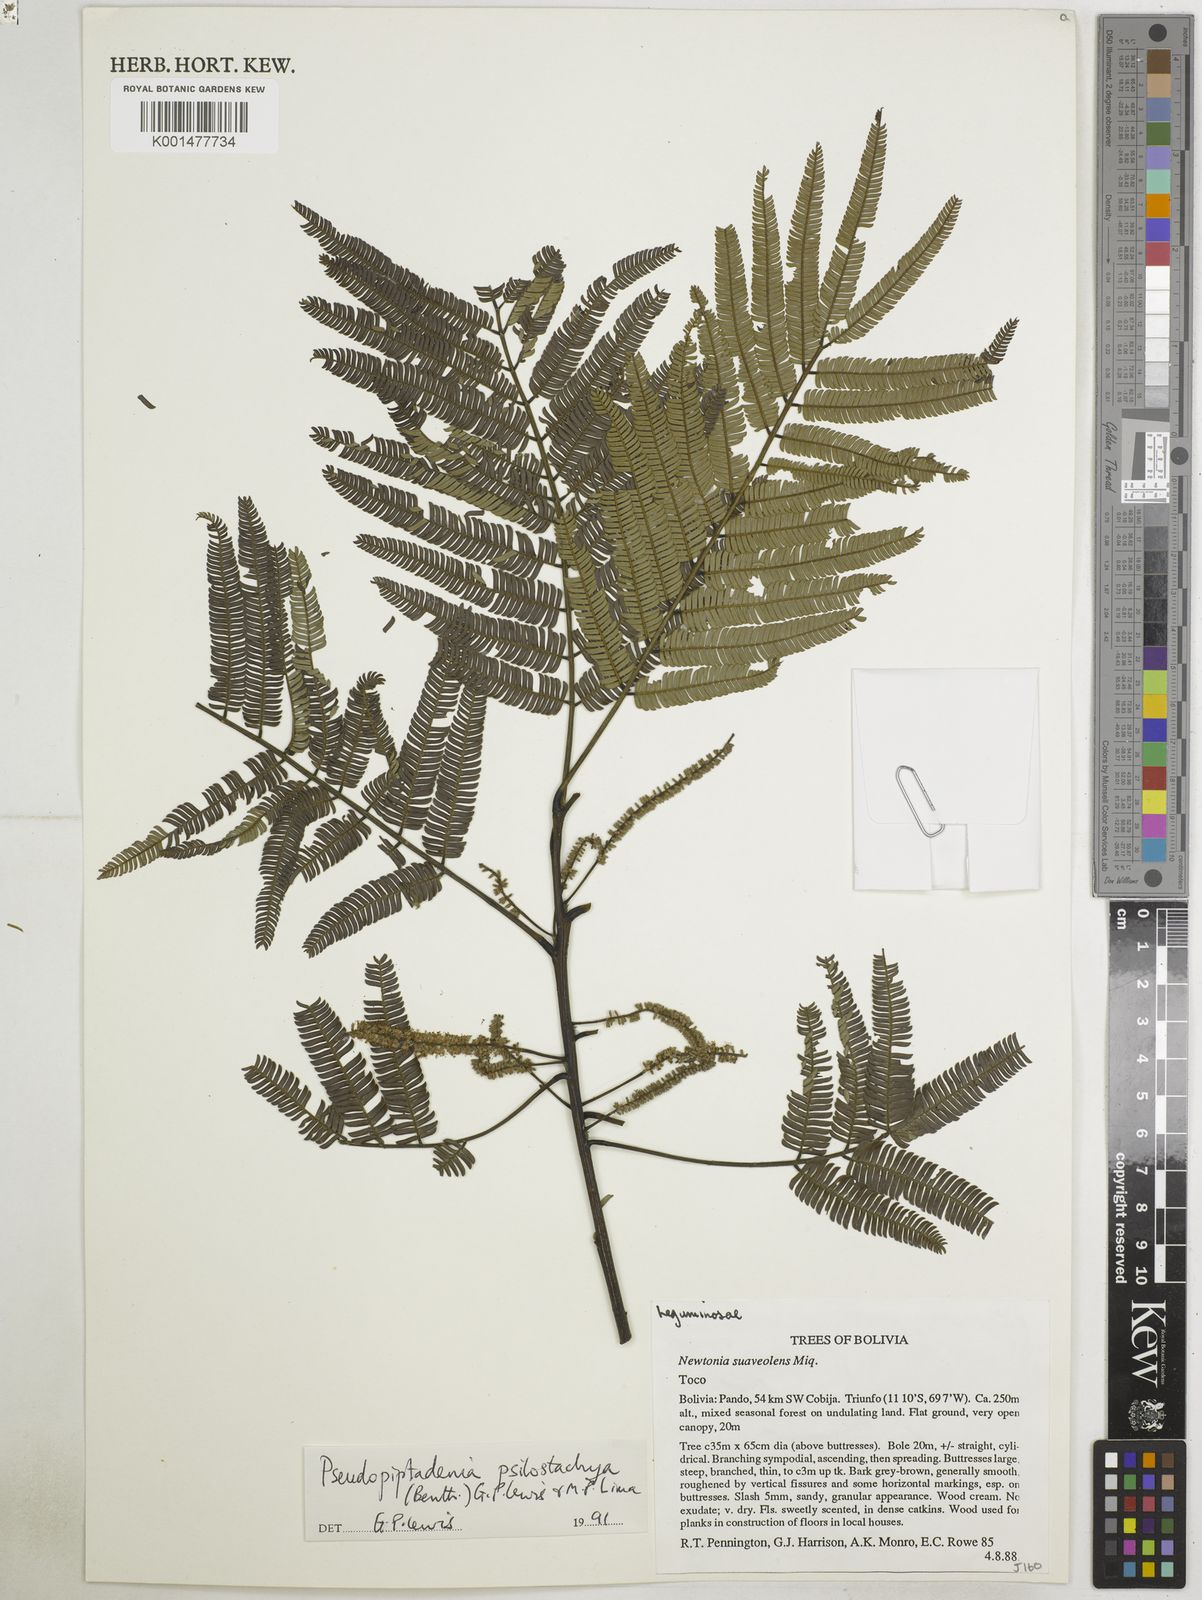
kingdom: Plantae
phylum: Tracheophyta
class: Magnoliopsida
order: Fabales
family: Fabaceae
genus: Pseudopiptadenia
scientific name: Pseudopiptadenia psilostachya
